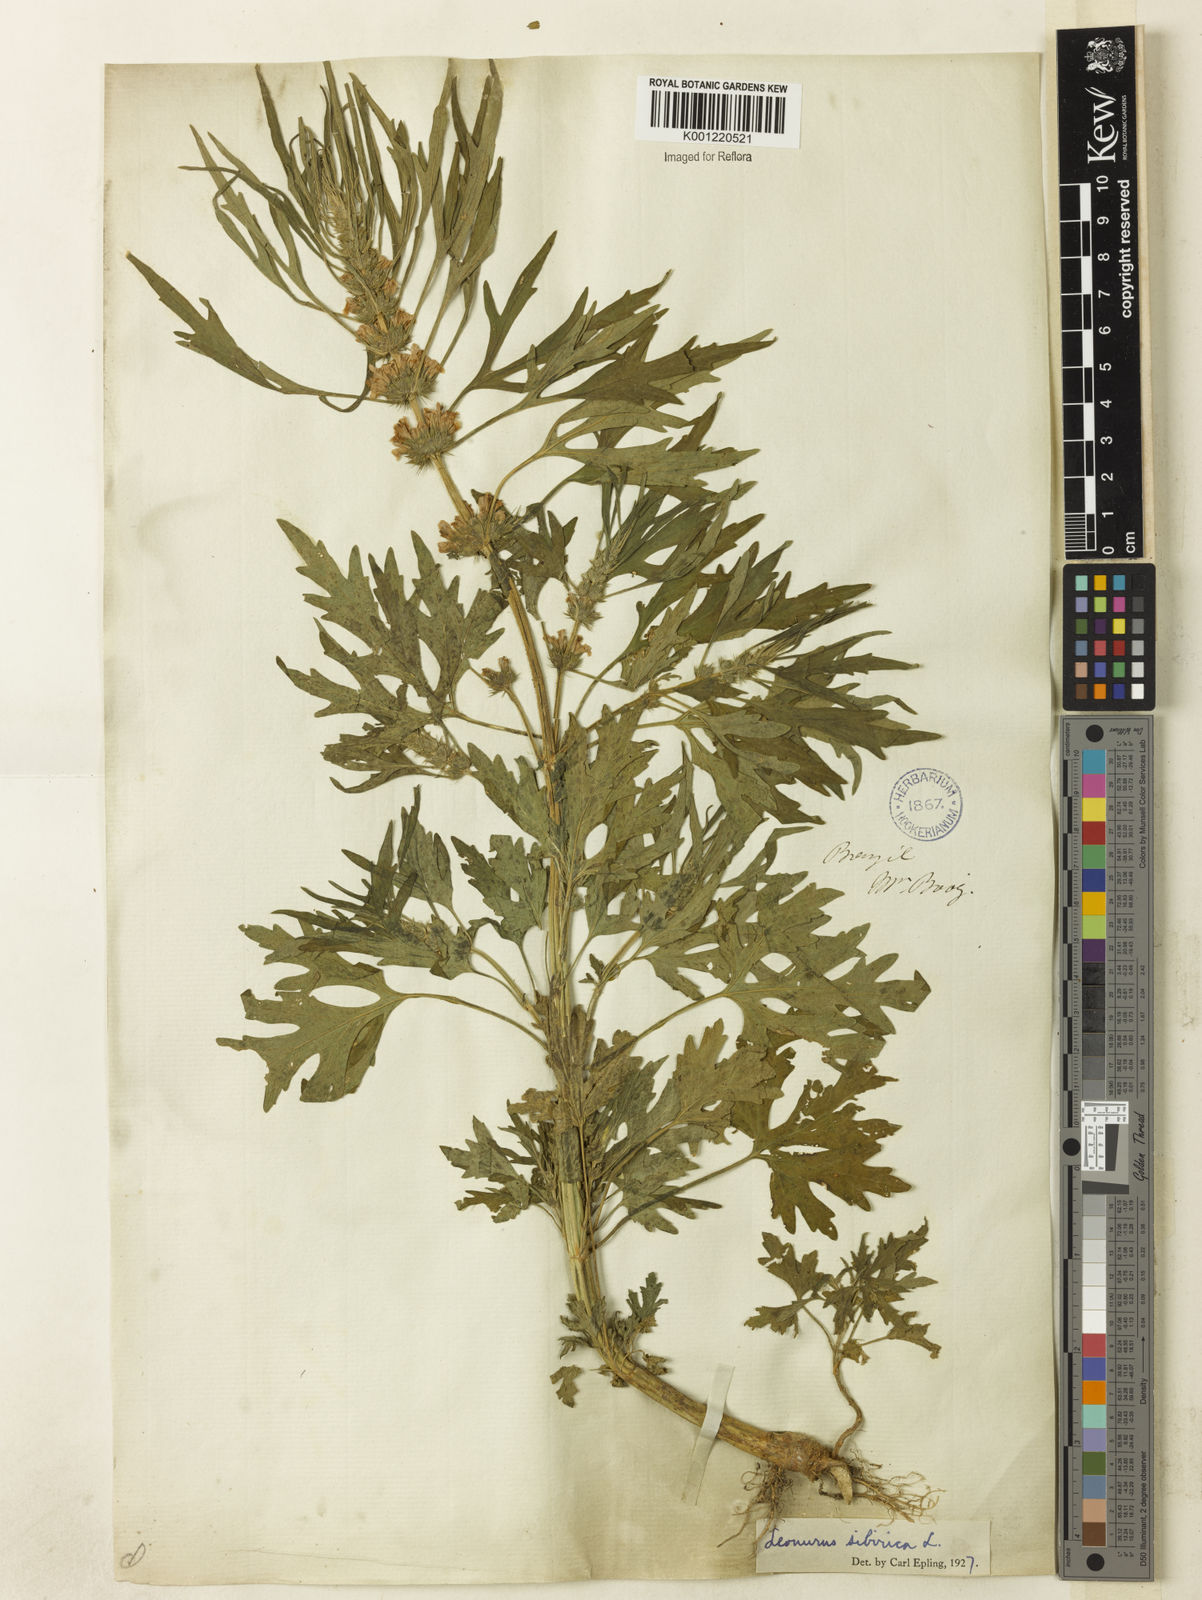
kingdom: Plantae
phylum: Tracheophyta
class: Magnoliopsida
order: Lamiales
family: Lamiaceae
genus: Leonurus
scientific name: Leonurus japonicus
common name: Honeyweed
